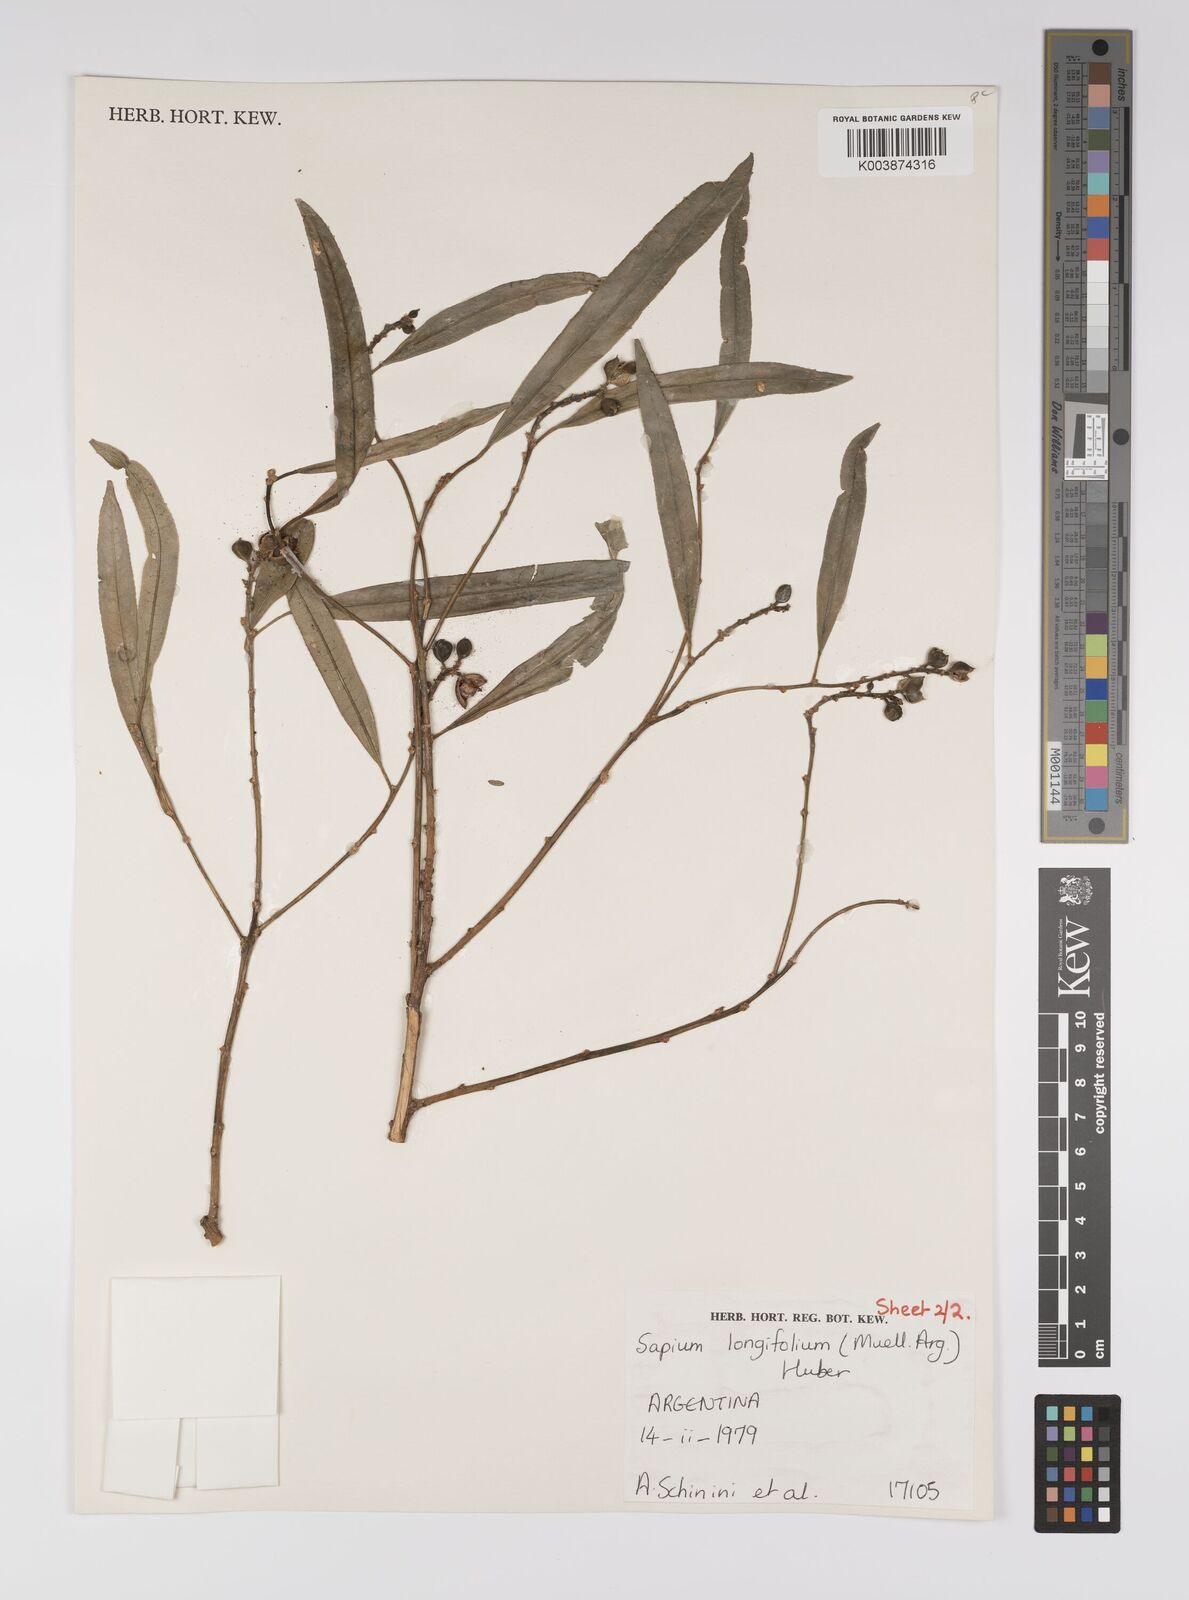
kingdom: Plantae
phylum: Tracheophyta
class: Magnoliopsida
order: Malpighiales
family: Euphorbiaceae
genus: Sapium
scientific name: Sapium haematospermum
